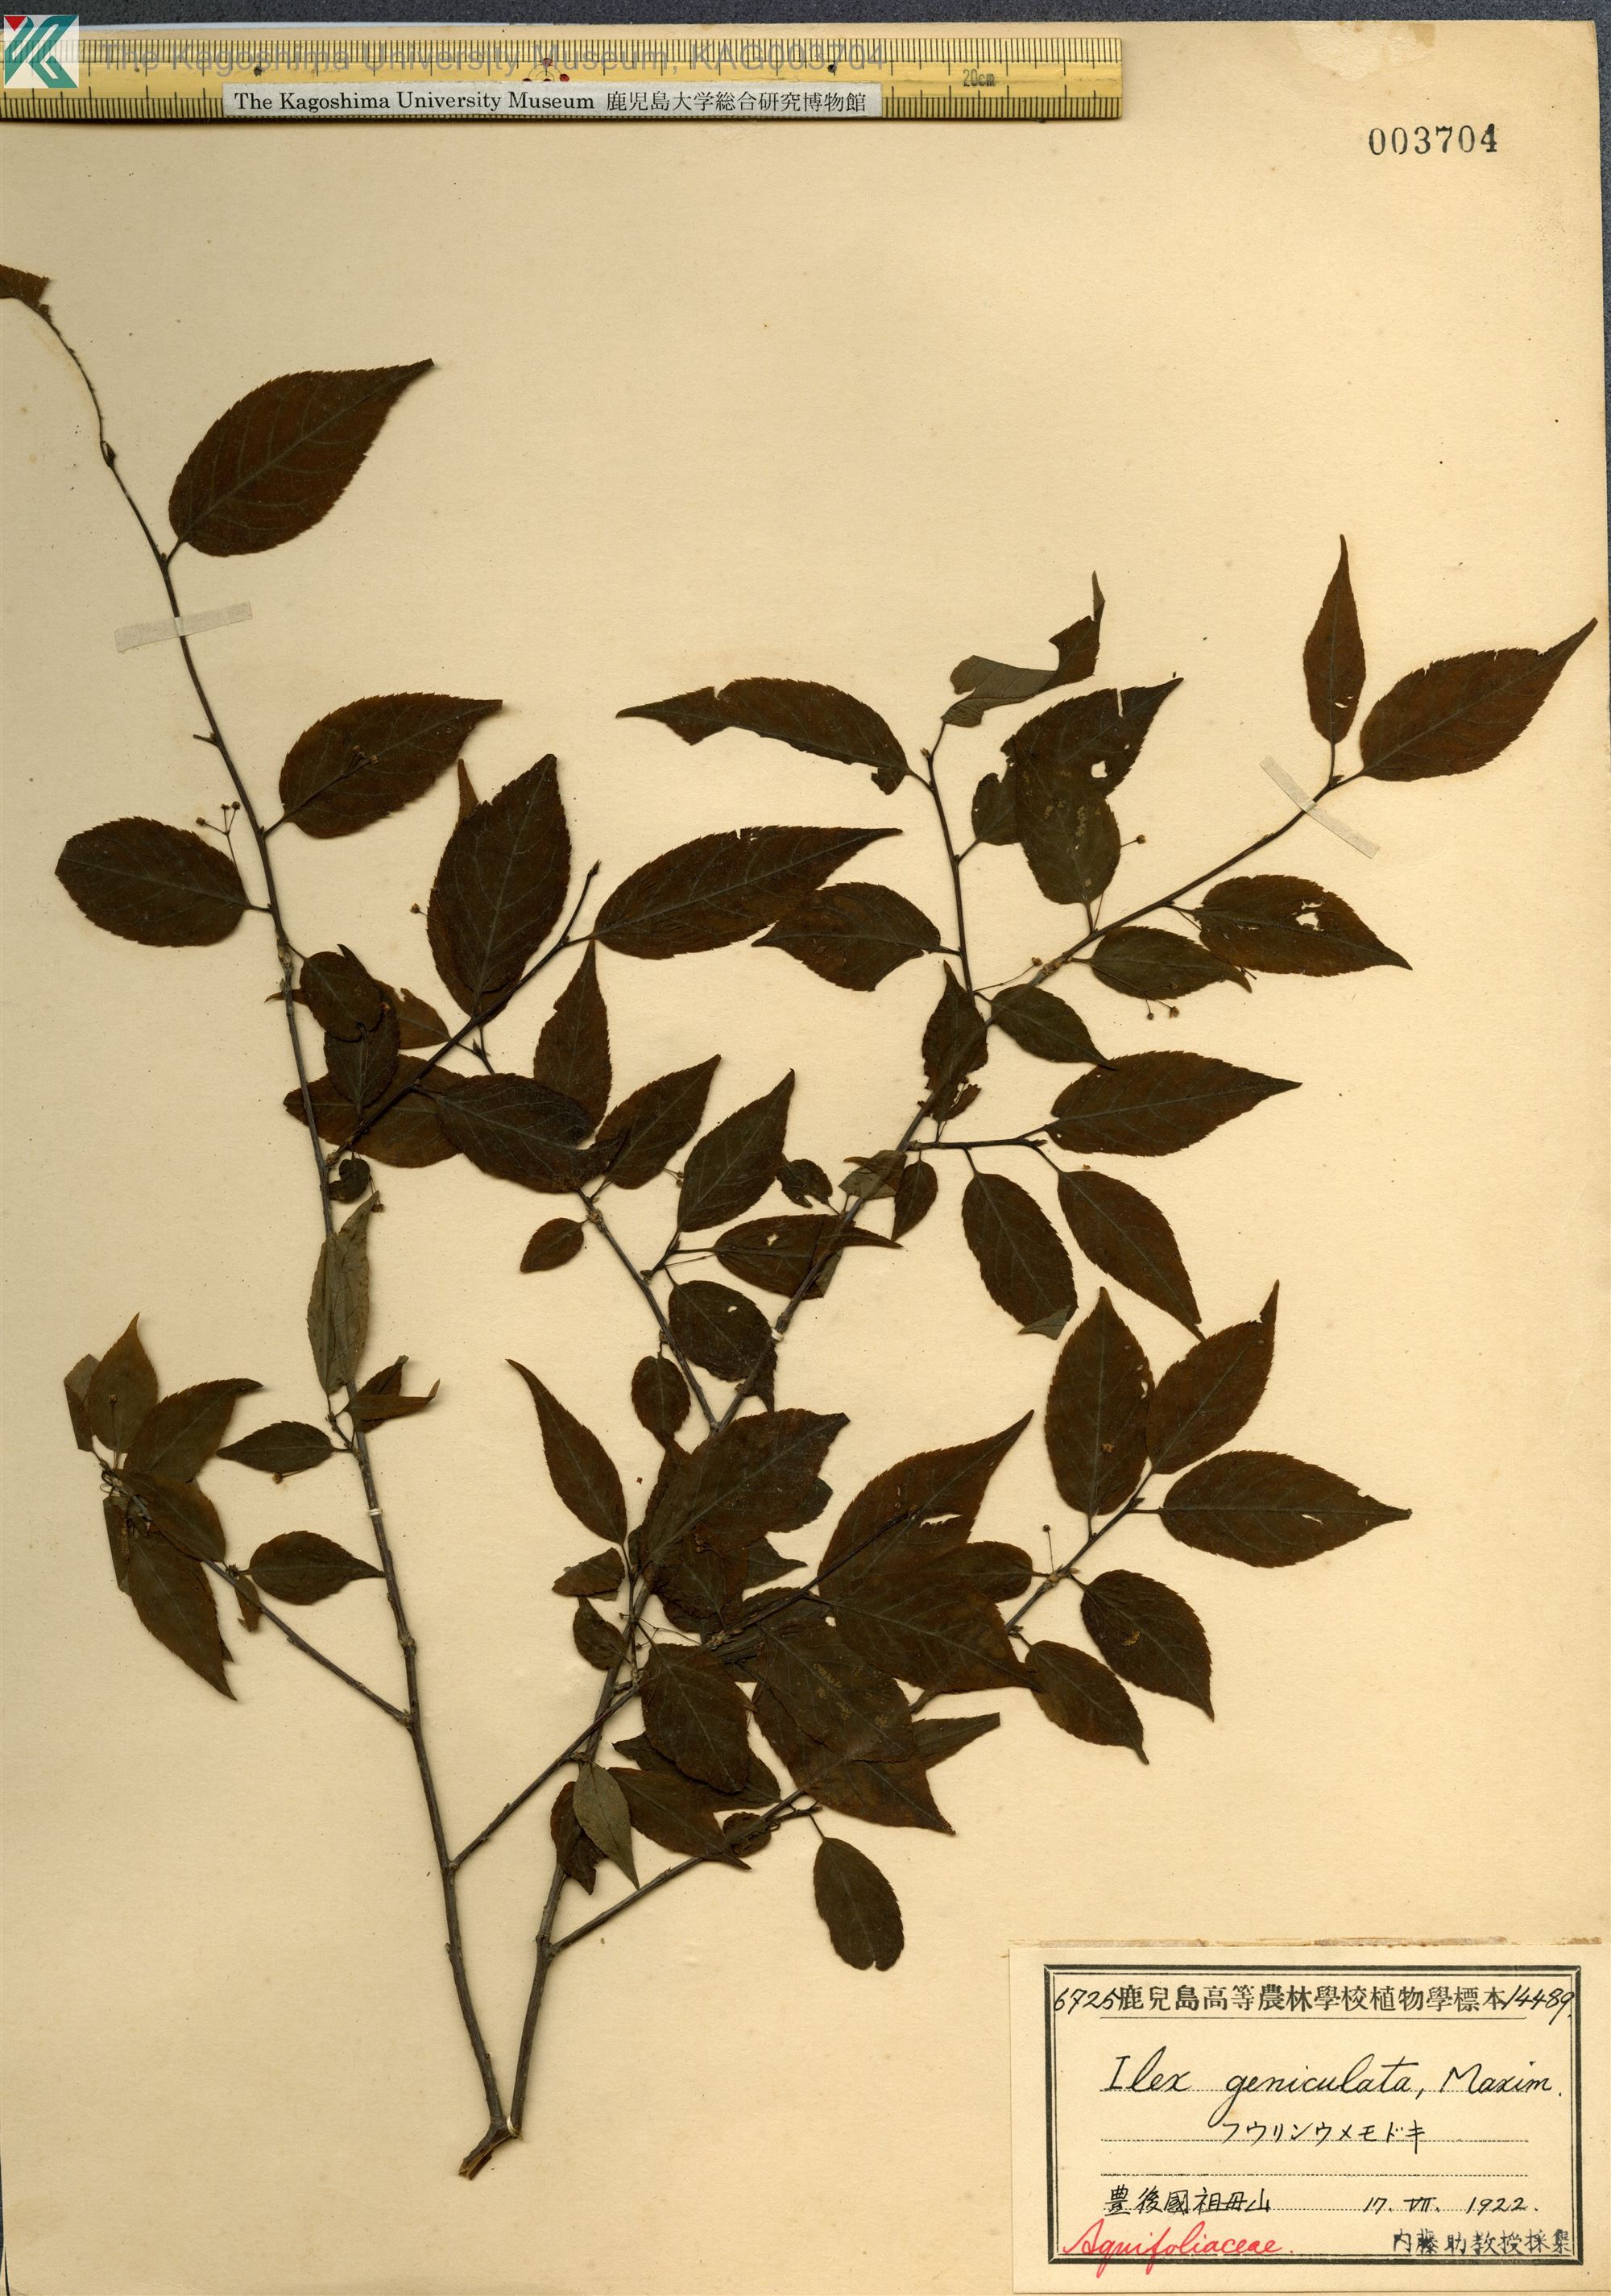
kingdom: Plantae
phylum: Tracheophyta
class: Magnoliopsida
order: Aquifoliales
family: Aquifoliaceae
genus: Ilex
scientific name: Ilex geniculata
